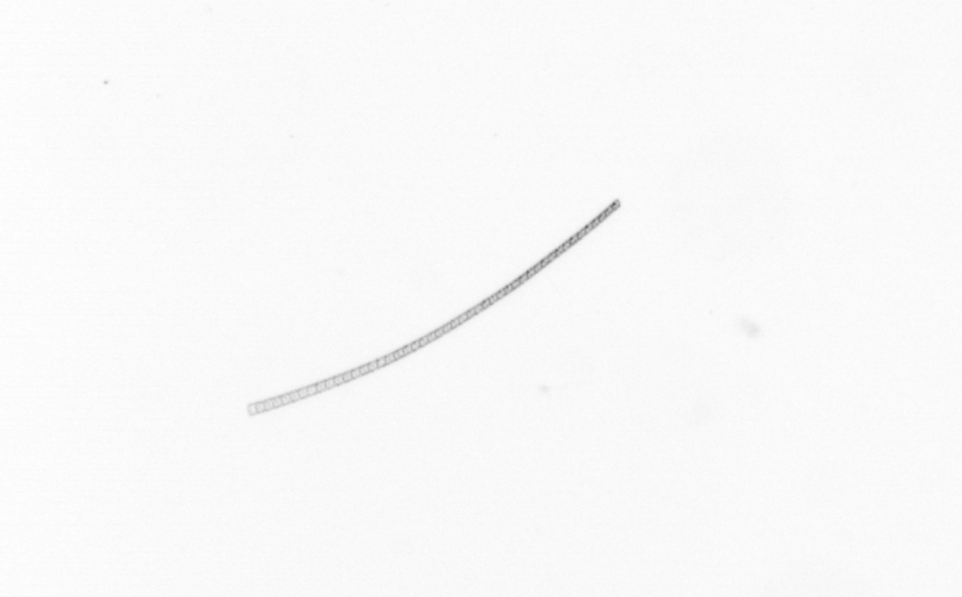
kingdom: Chromista
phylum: Ochrophyta
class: Bacillariophyceae
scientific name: Bacillariophyceae
